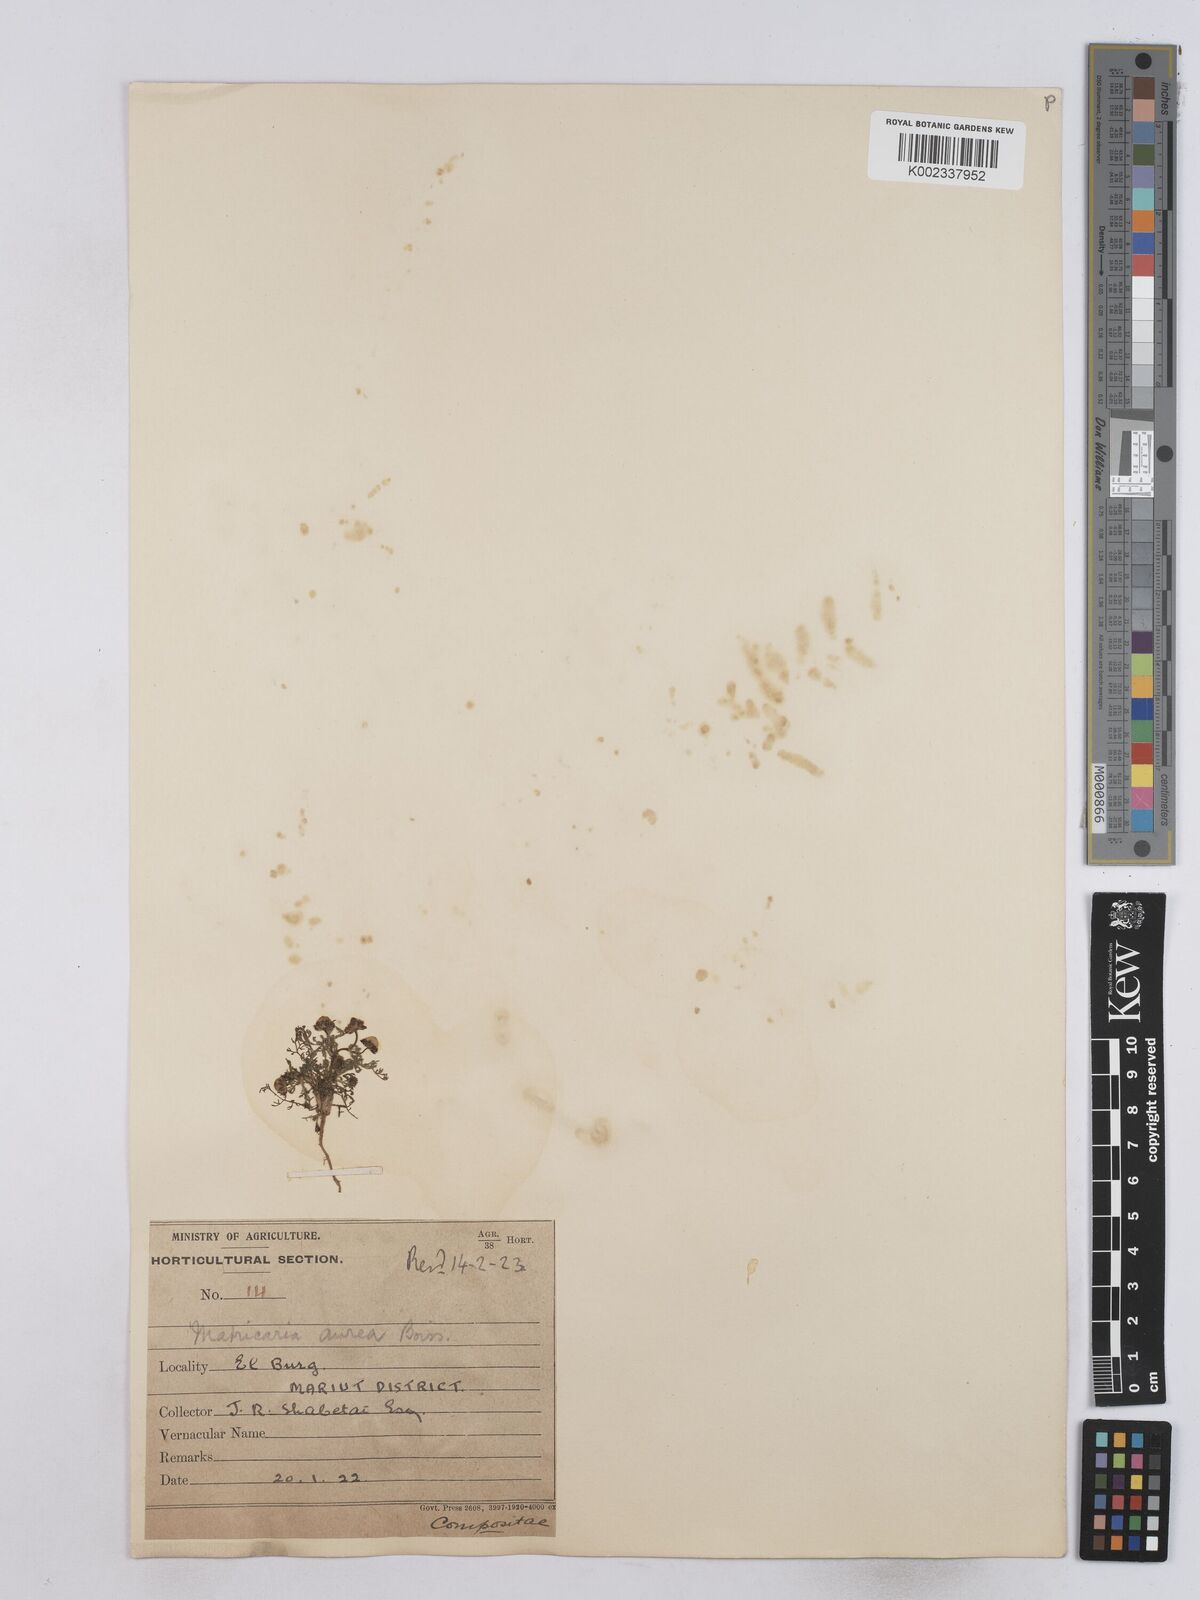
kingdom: Plantae
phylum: Tracheophyta
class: Magnoliopsida
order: Asterales
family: Asteraceae
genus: Matricaria
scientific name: Matricaria
